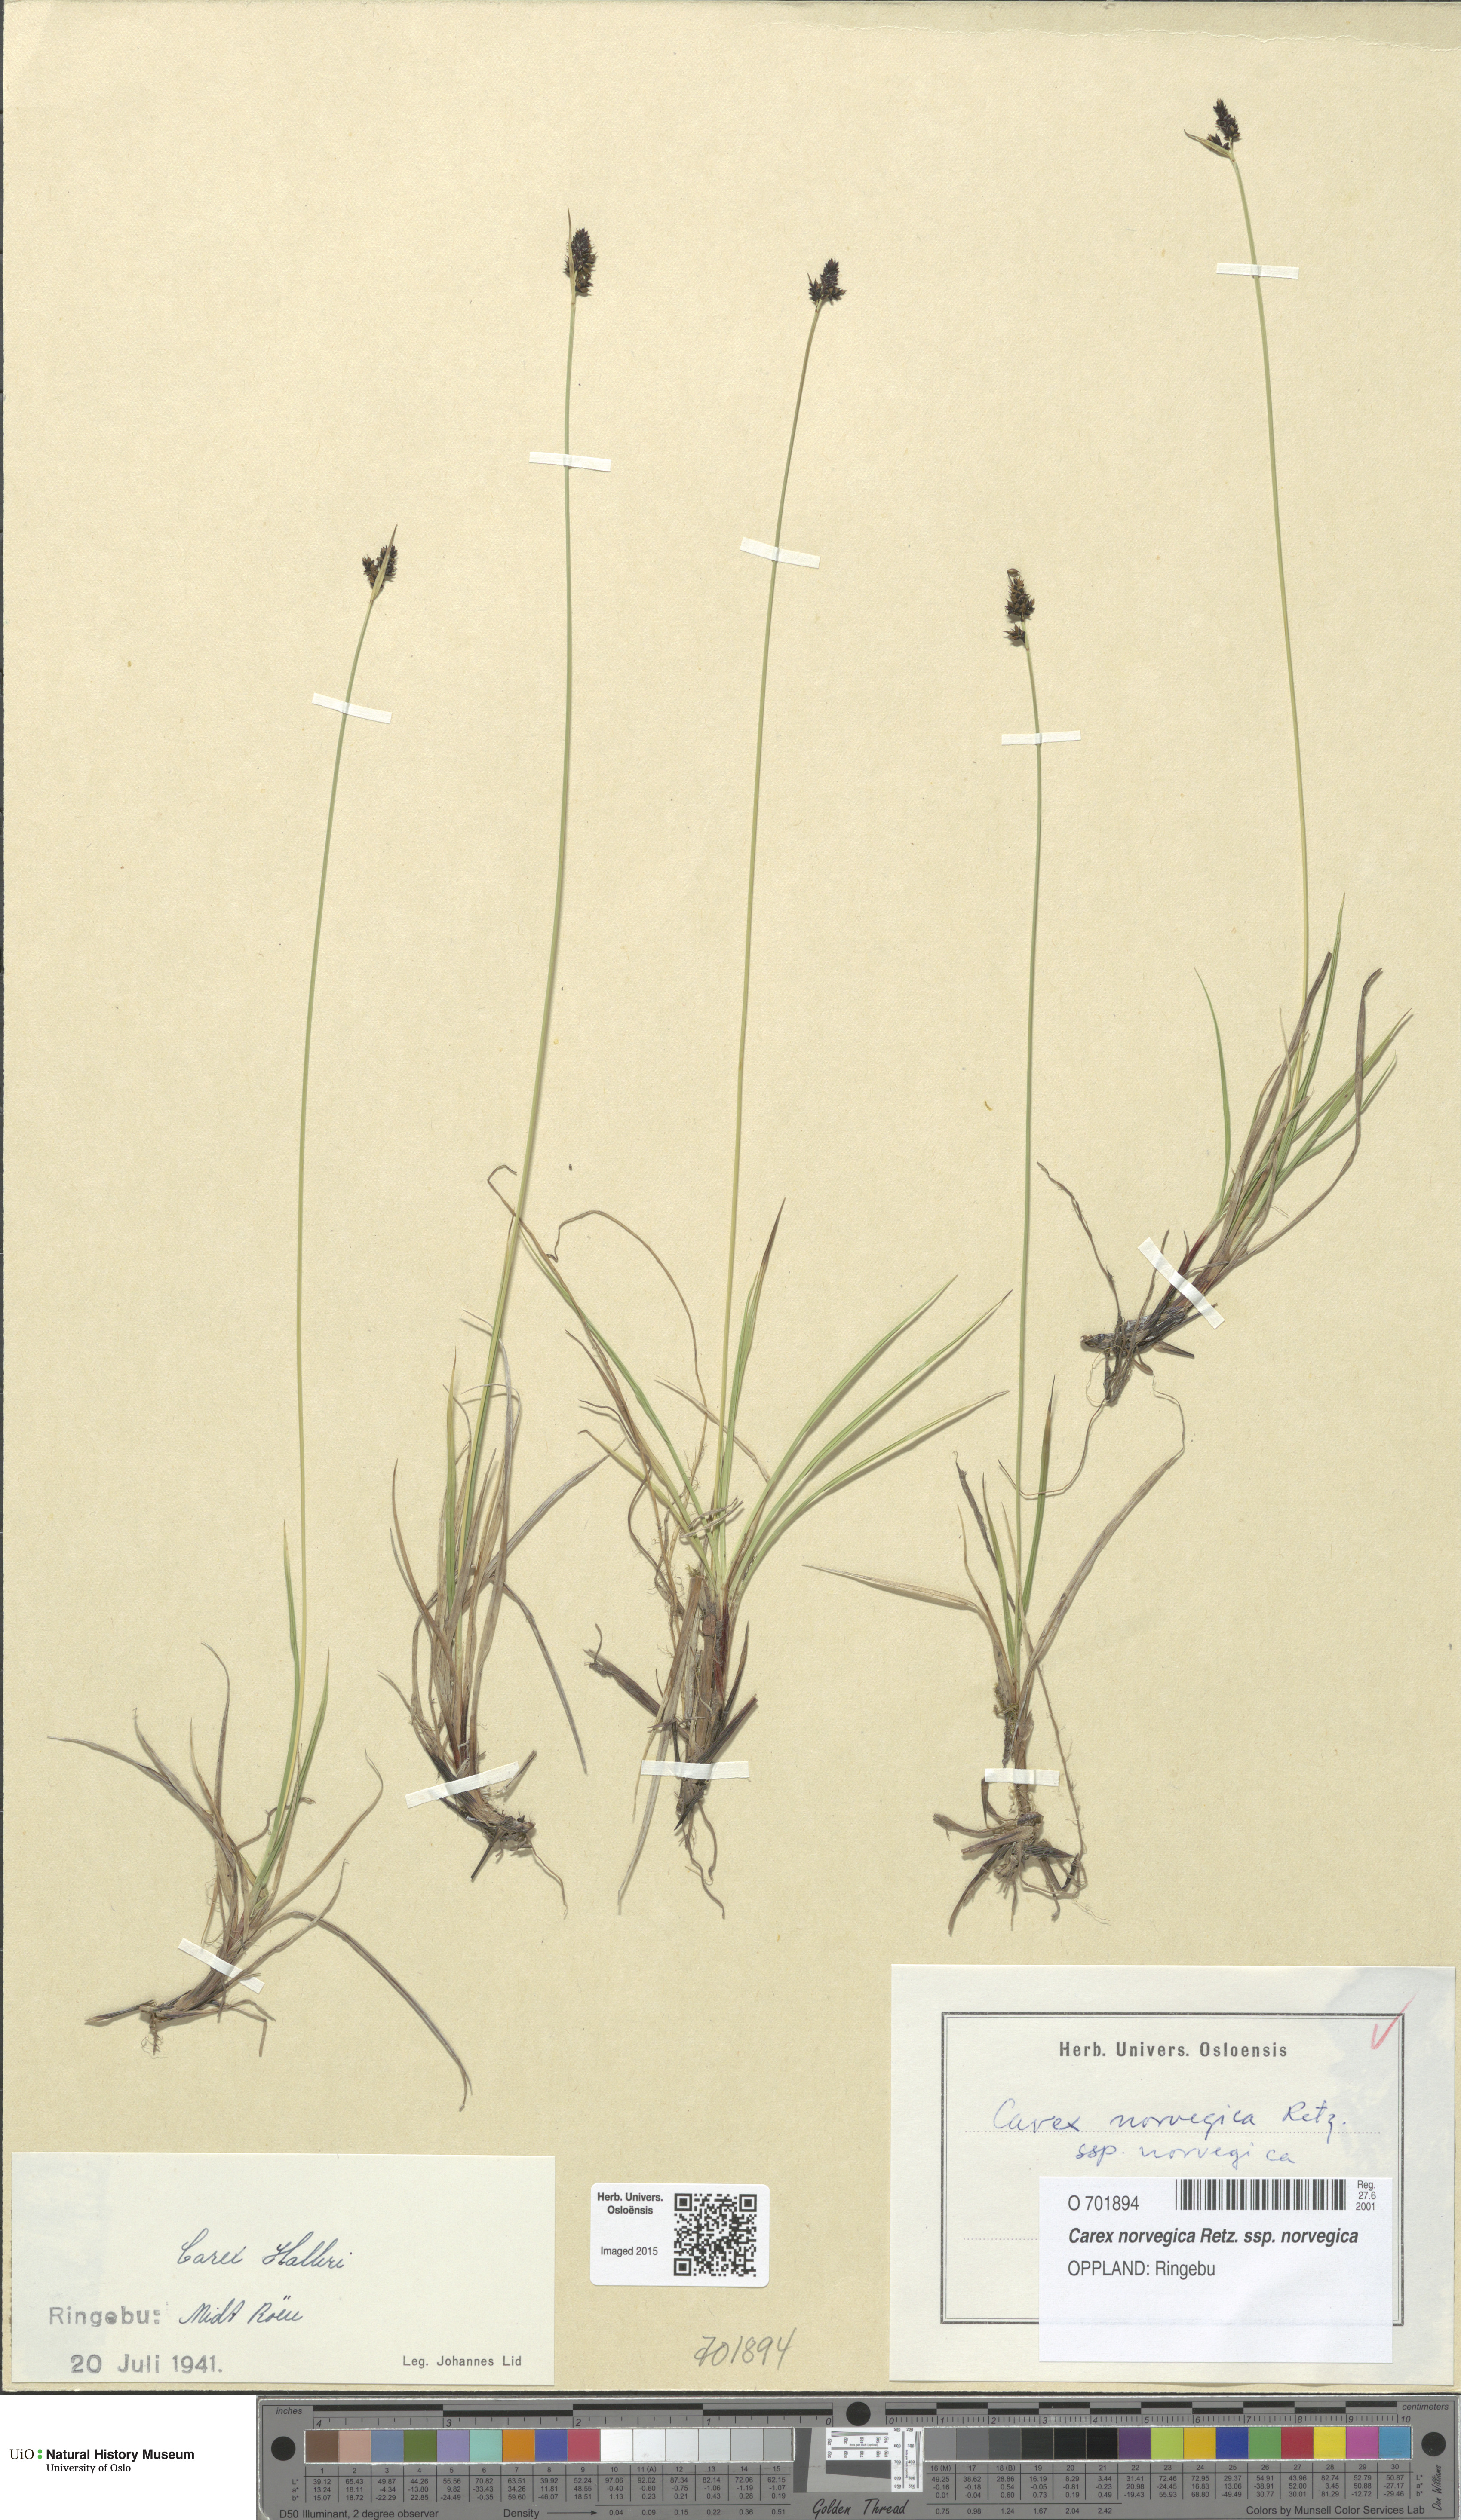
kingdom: Plantae
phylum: Tracheophyta
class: Liliopsida
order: Poales
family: Cyperaceae
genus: Carex
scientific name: Carex norvegica
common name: Close-headed alpine-sedge
